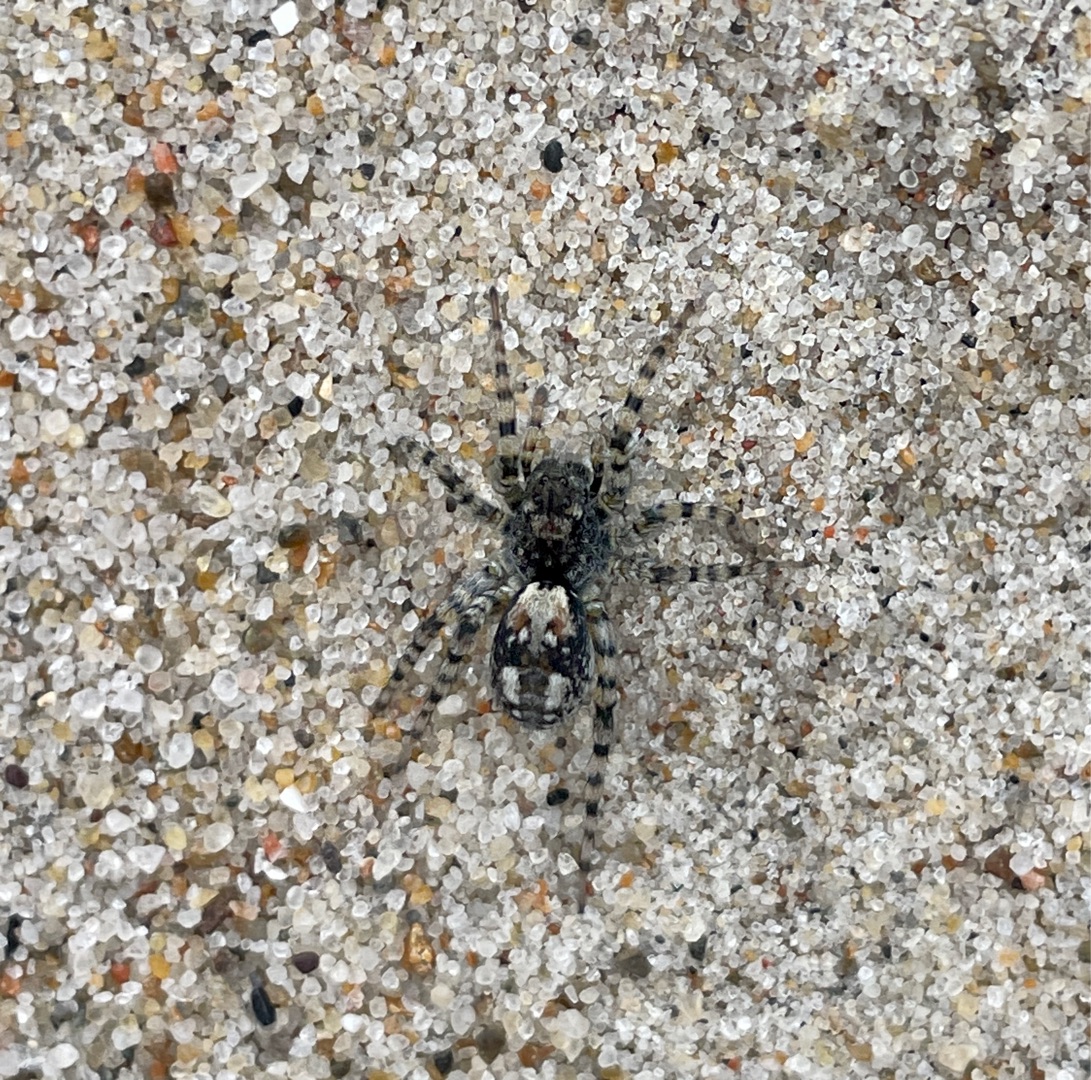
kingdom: Animalia
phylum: Arthropoda
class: Arachnida
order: Araneae
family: Lycosidae
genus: Arctosa
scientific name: Arctosa perita
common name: Klitgraveedderkop
